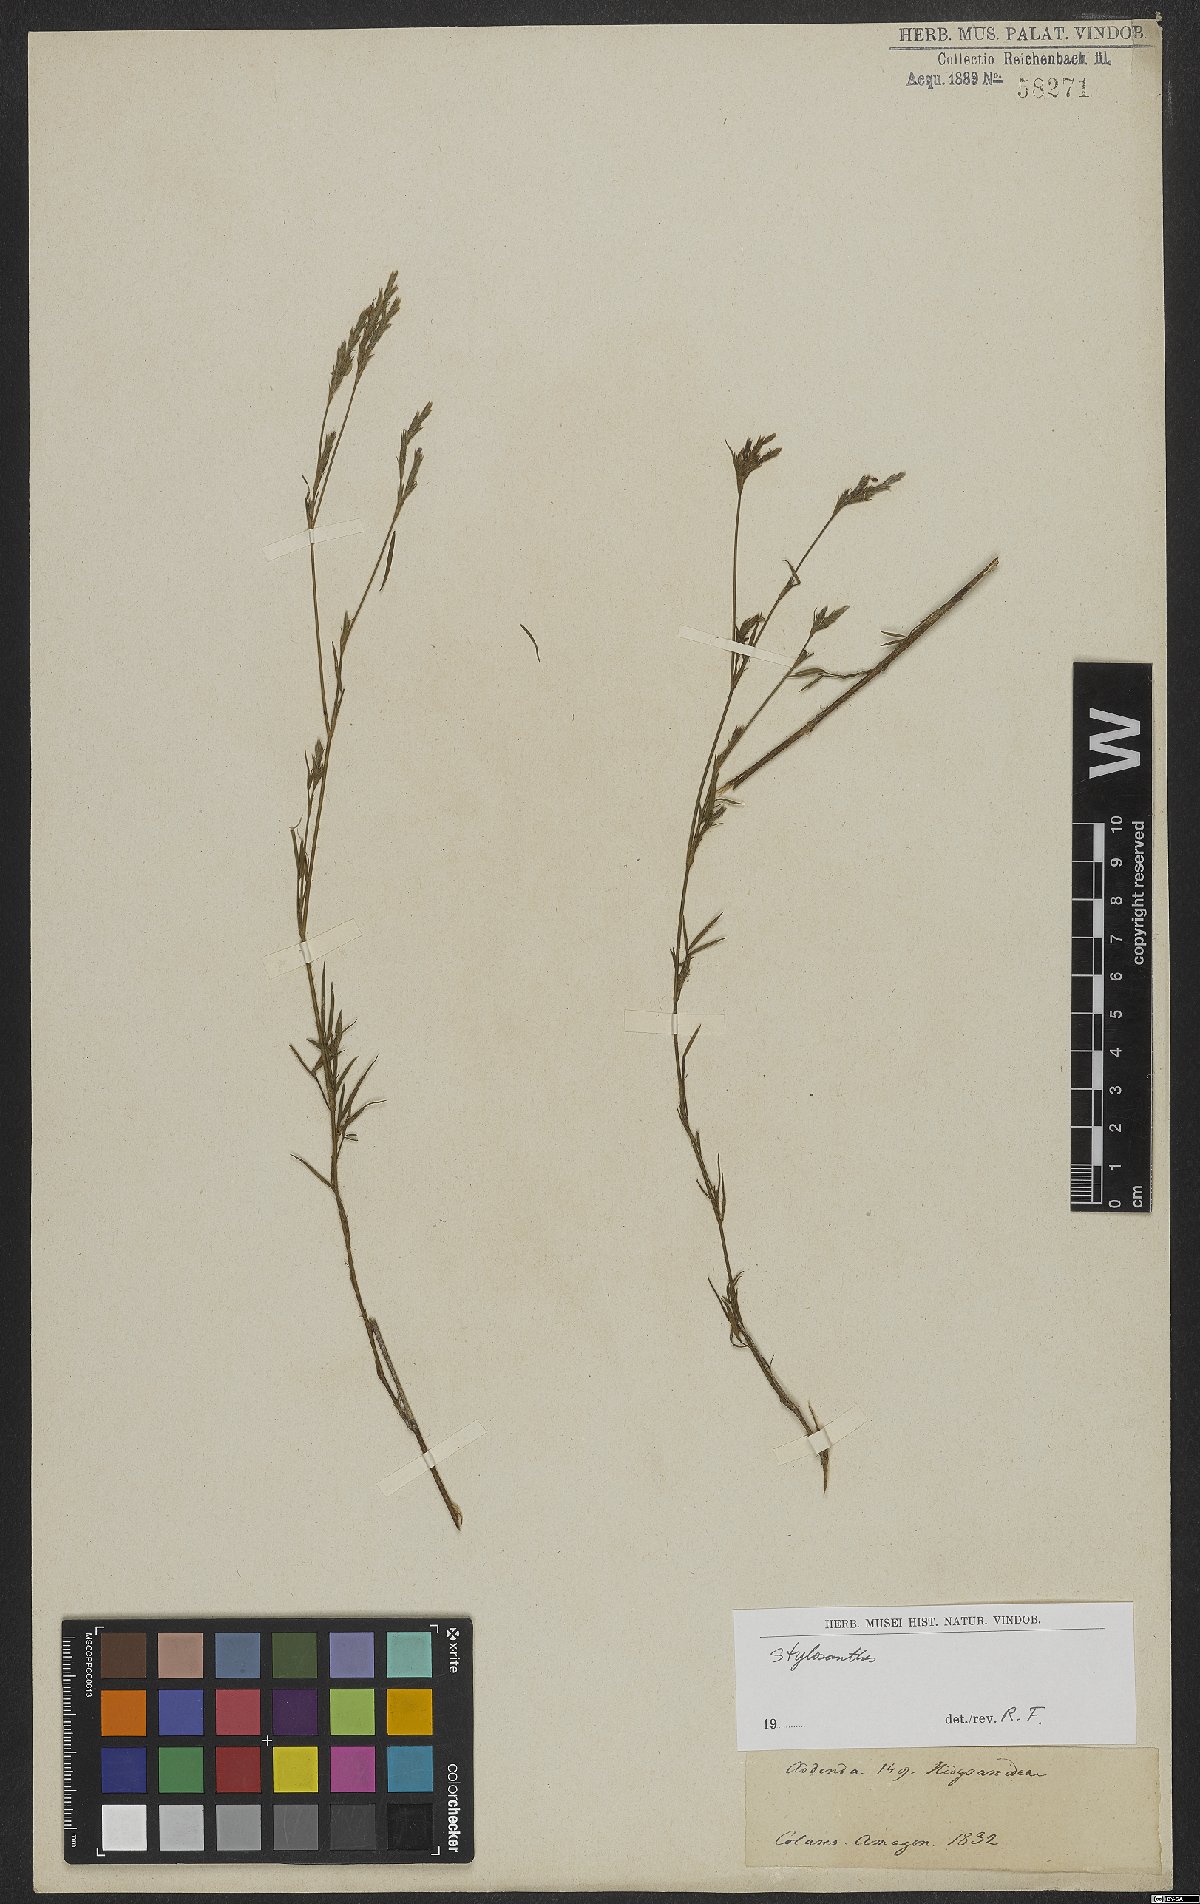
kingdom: Plantae
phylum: Tracheophyta
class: Magnoliopsida
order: Fabales
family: Fabaceae
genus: Stylosanthes
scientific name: Stylosanthes
